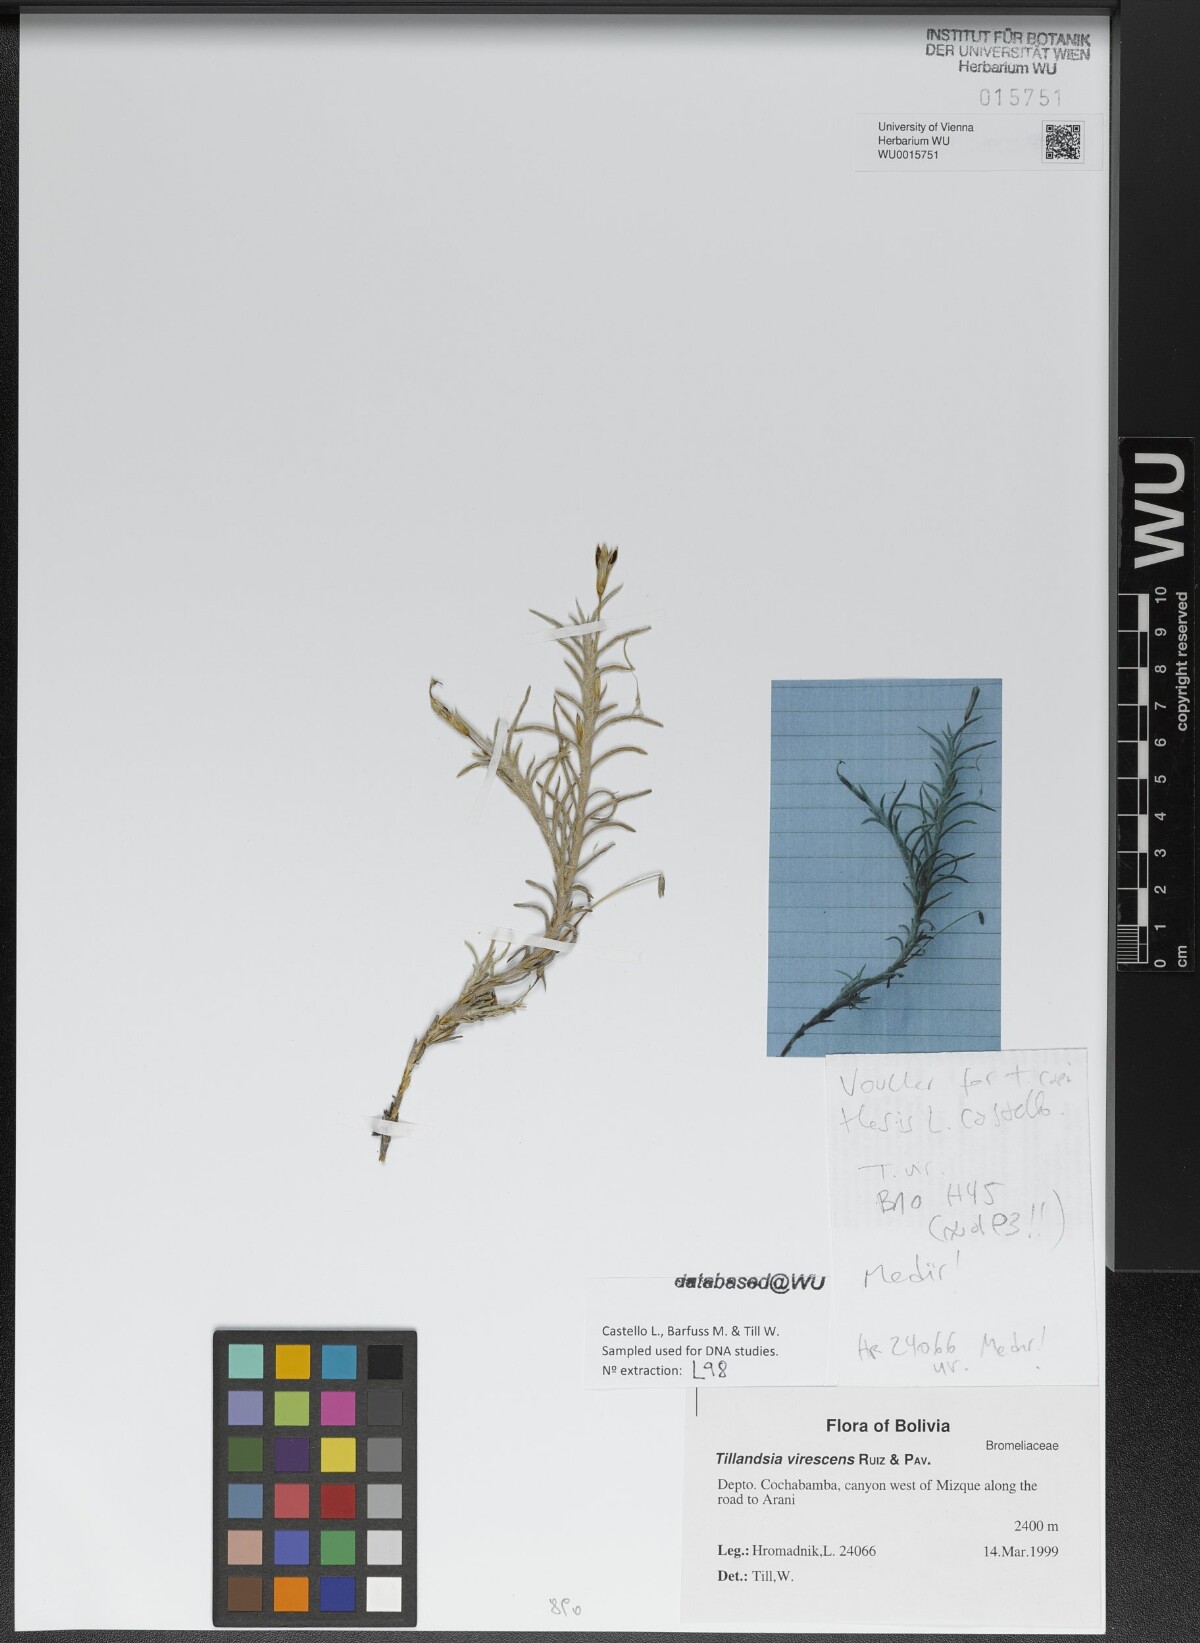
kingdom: Plantae
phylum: Tracheophyta
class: Liliopsida
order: Poales
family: Bromeliaceae
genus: Tillandsia
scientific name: Tillandsia virescens
